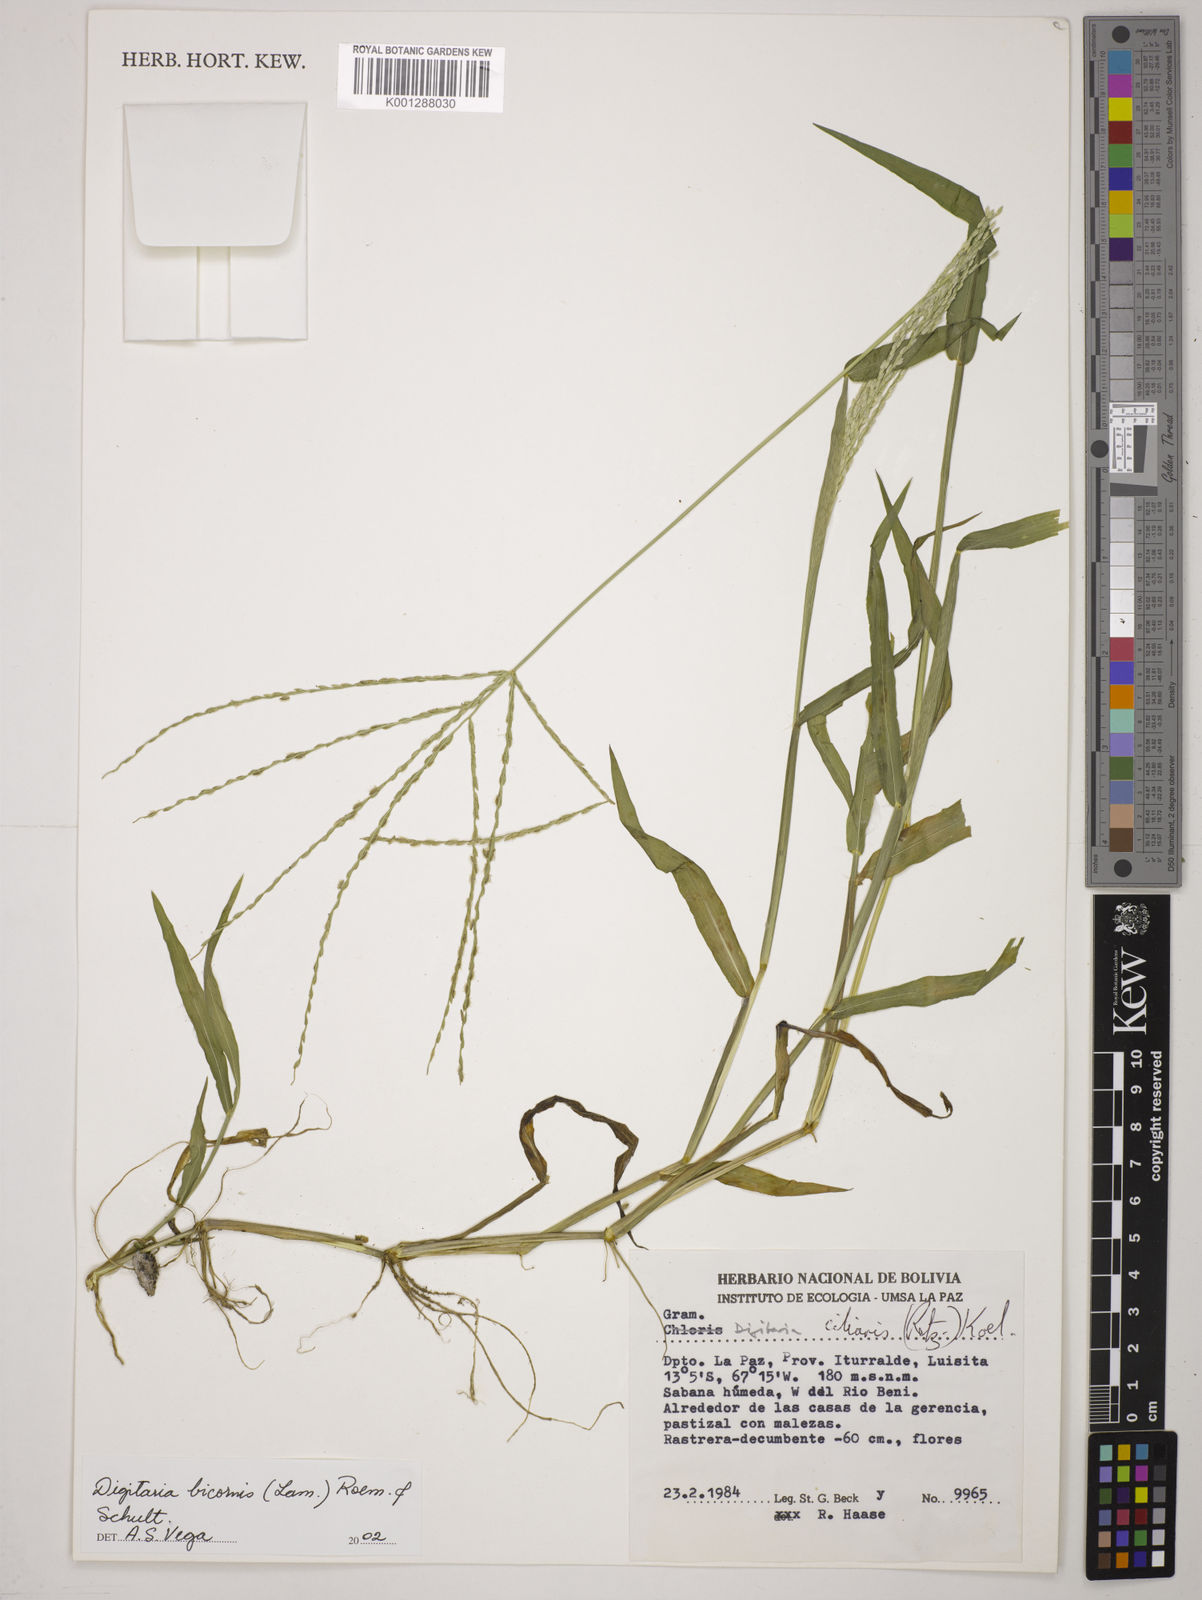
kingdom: Plantae
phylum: Tracheophyta
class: Liliopsida
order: Poales
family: Poaceae
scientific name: Poaceae
